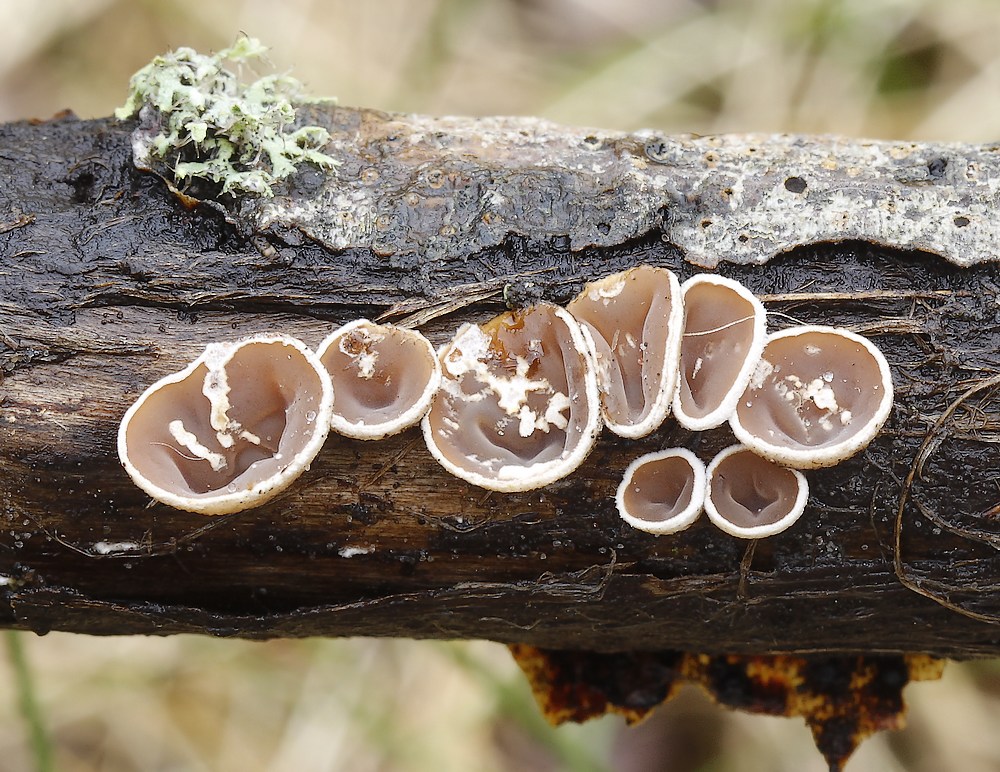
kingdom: Fungi
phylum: Basidiomycota
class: Agaricomycetes
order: Agaricales
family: Schizophyllaceae
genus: Schizophyllum
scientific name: Schizophyllum amplum
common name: poppel-hængeøre
